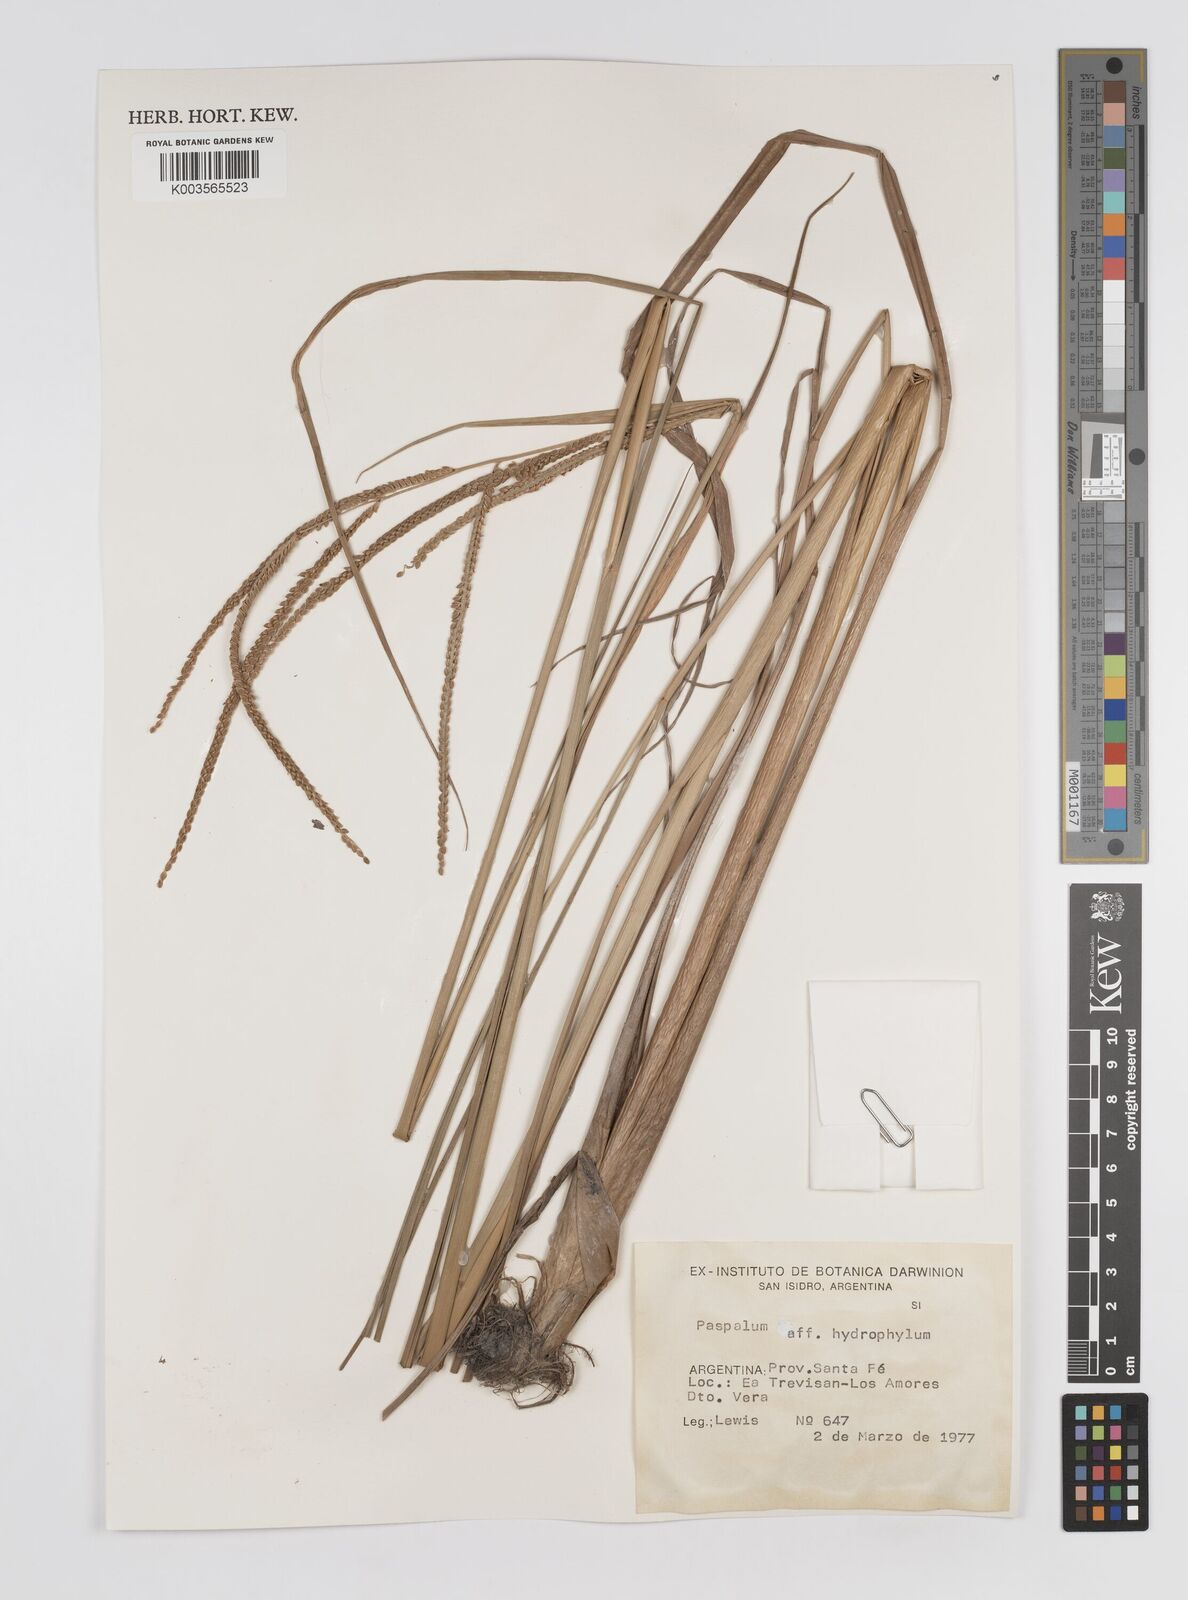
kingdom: Plantae
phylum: Tracheophyta
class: Liliopsida
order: Poales
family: Poaceae
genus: Paspalum
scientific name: Paspalum
